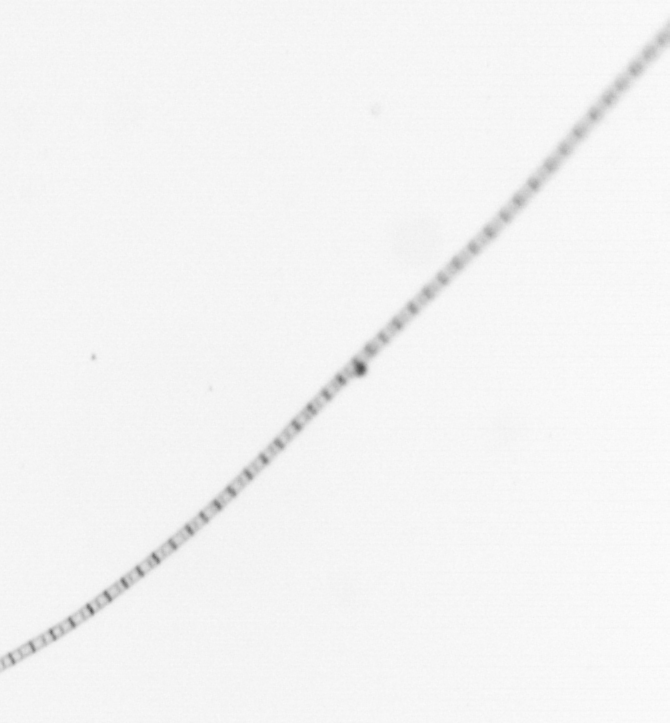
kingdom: Chromista
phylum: Ochrophyta
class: Bacillariophyceae
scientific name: Bacillariophyceae
